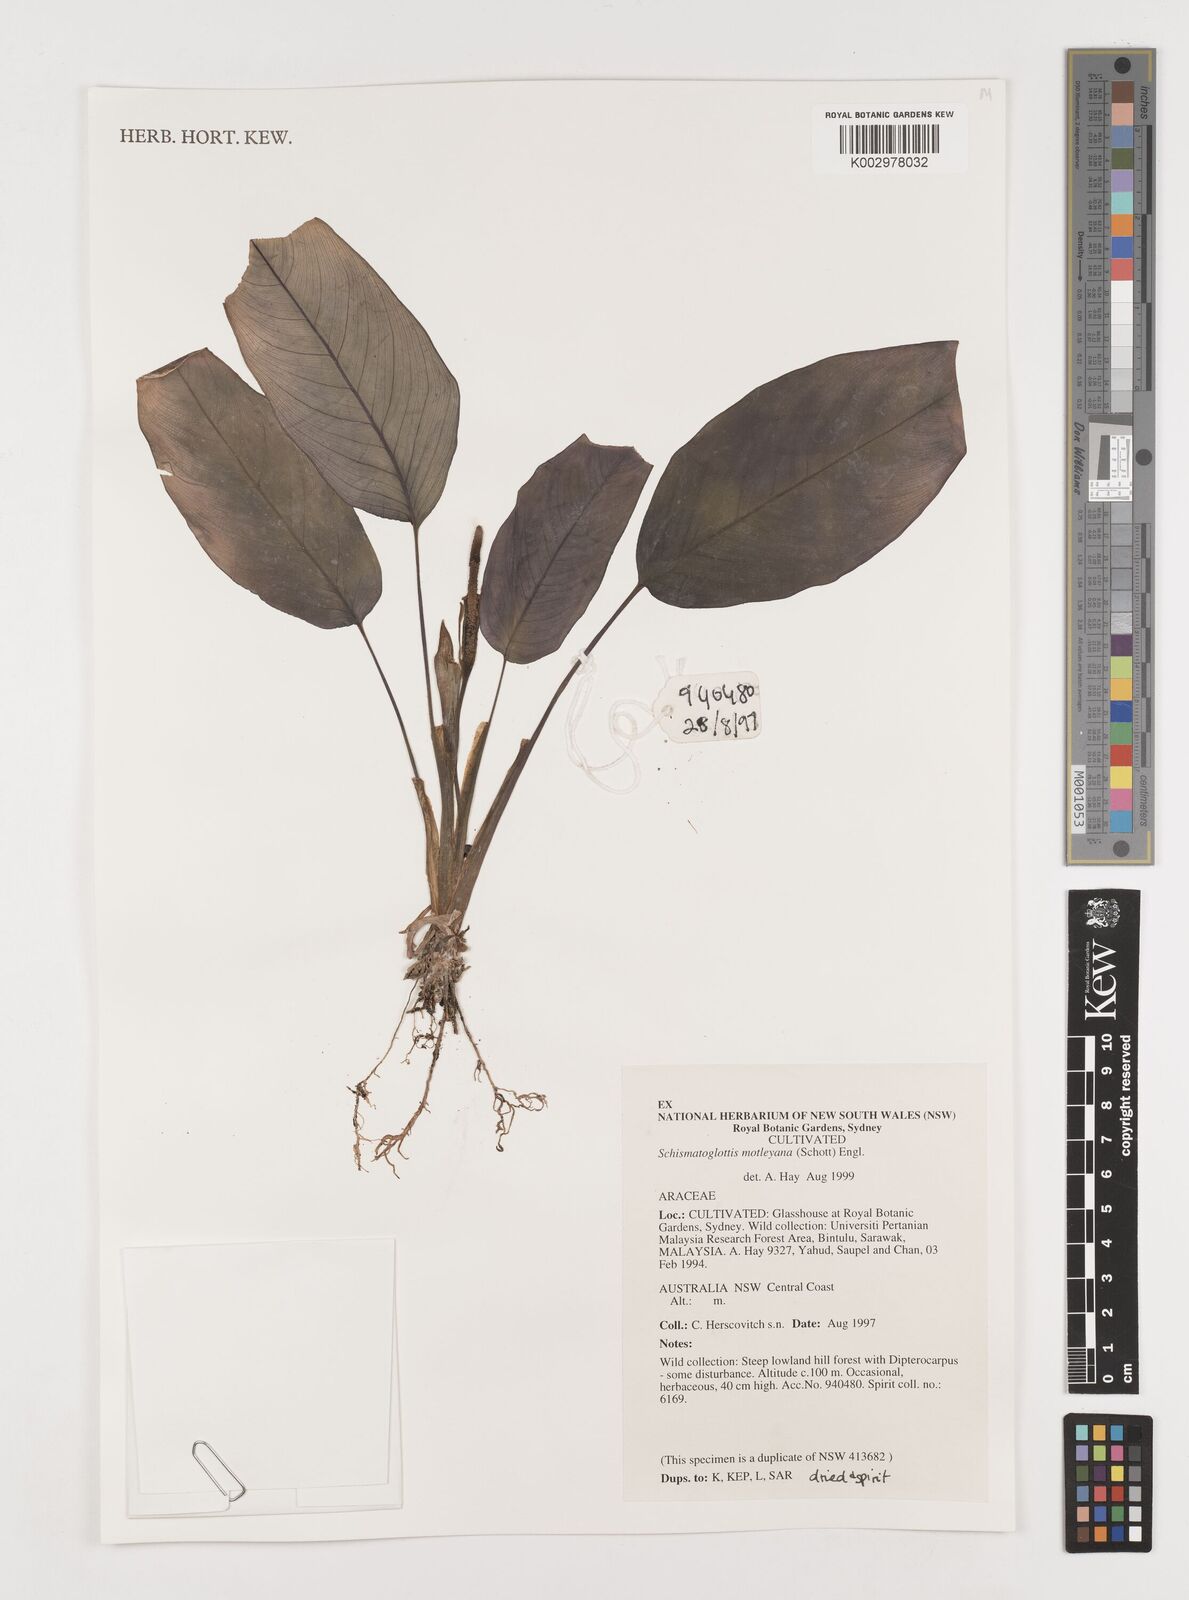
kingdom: Plantae
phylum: Tracheophyta
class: Liliopsida
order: Alismatales
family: Araceae
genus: Schismatoglottis
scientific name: Schismatoglottis motleyana
